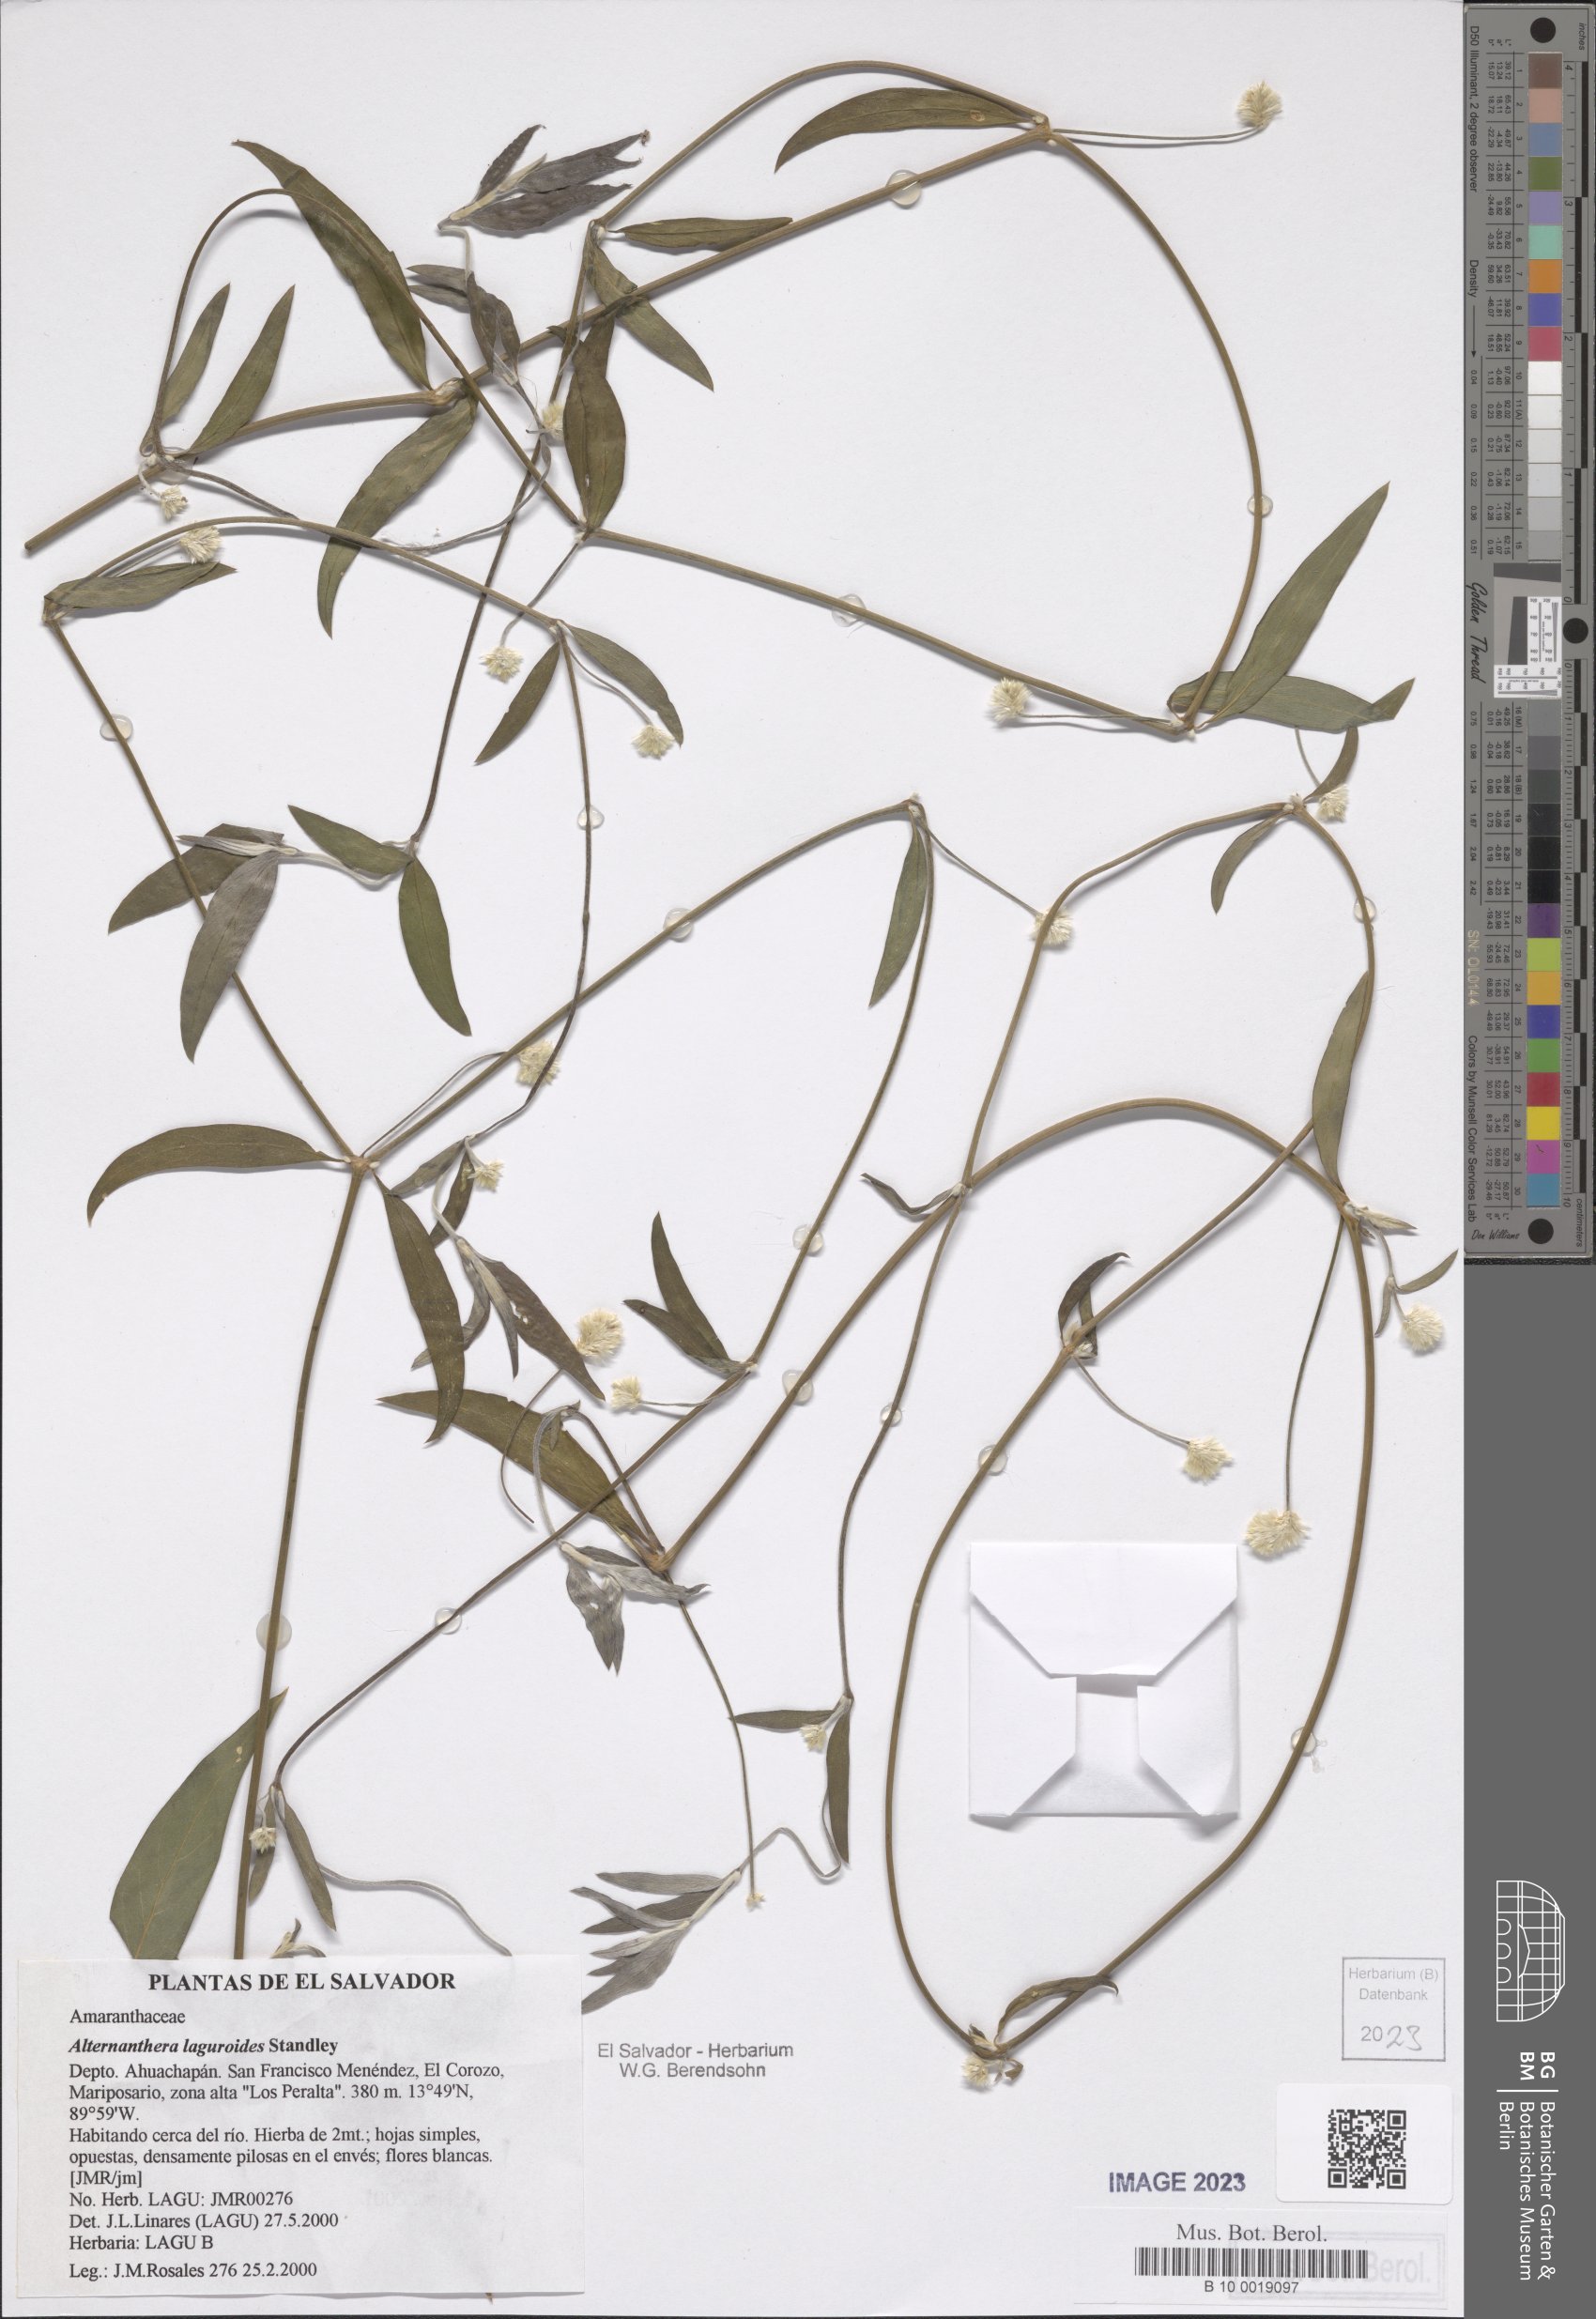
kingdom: Plantae
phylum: Tracheophyta
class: Magnoliopsida
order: Caryophyllales
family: Amaranthaceae
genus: Alternanthera
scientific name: Alternanthera laguroides
